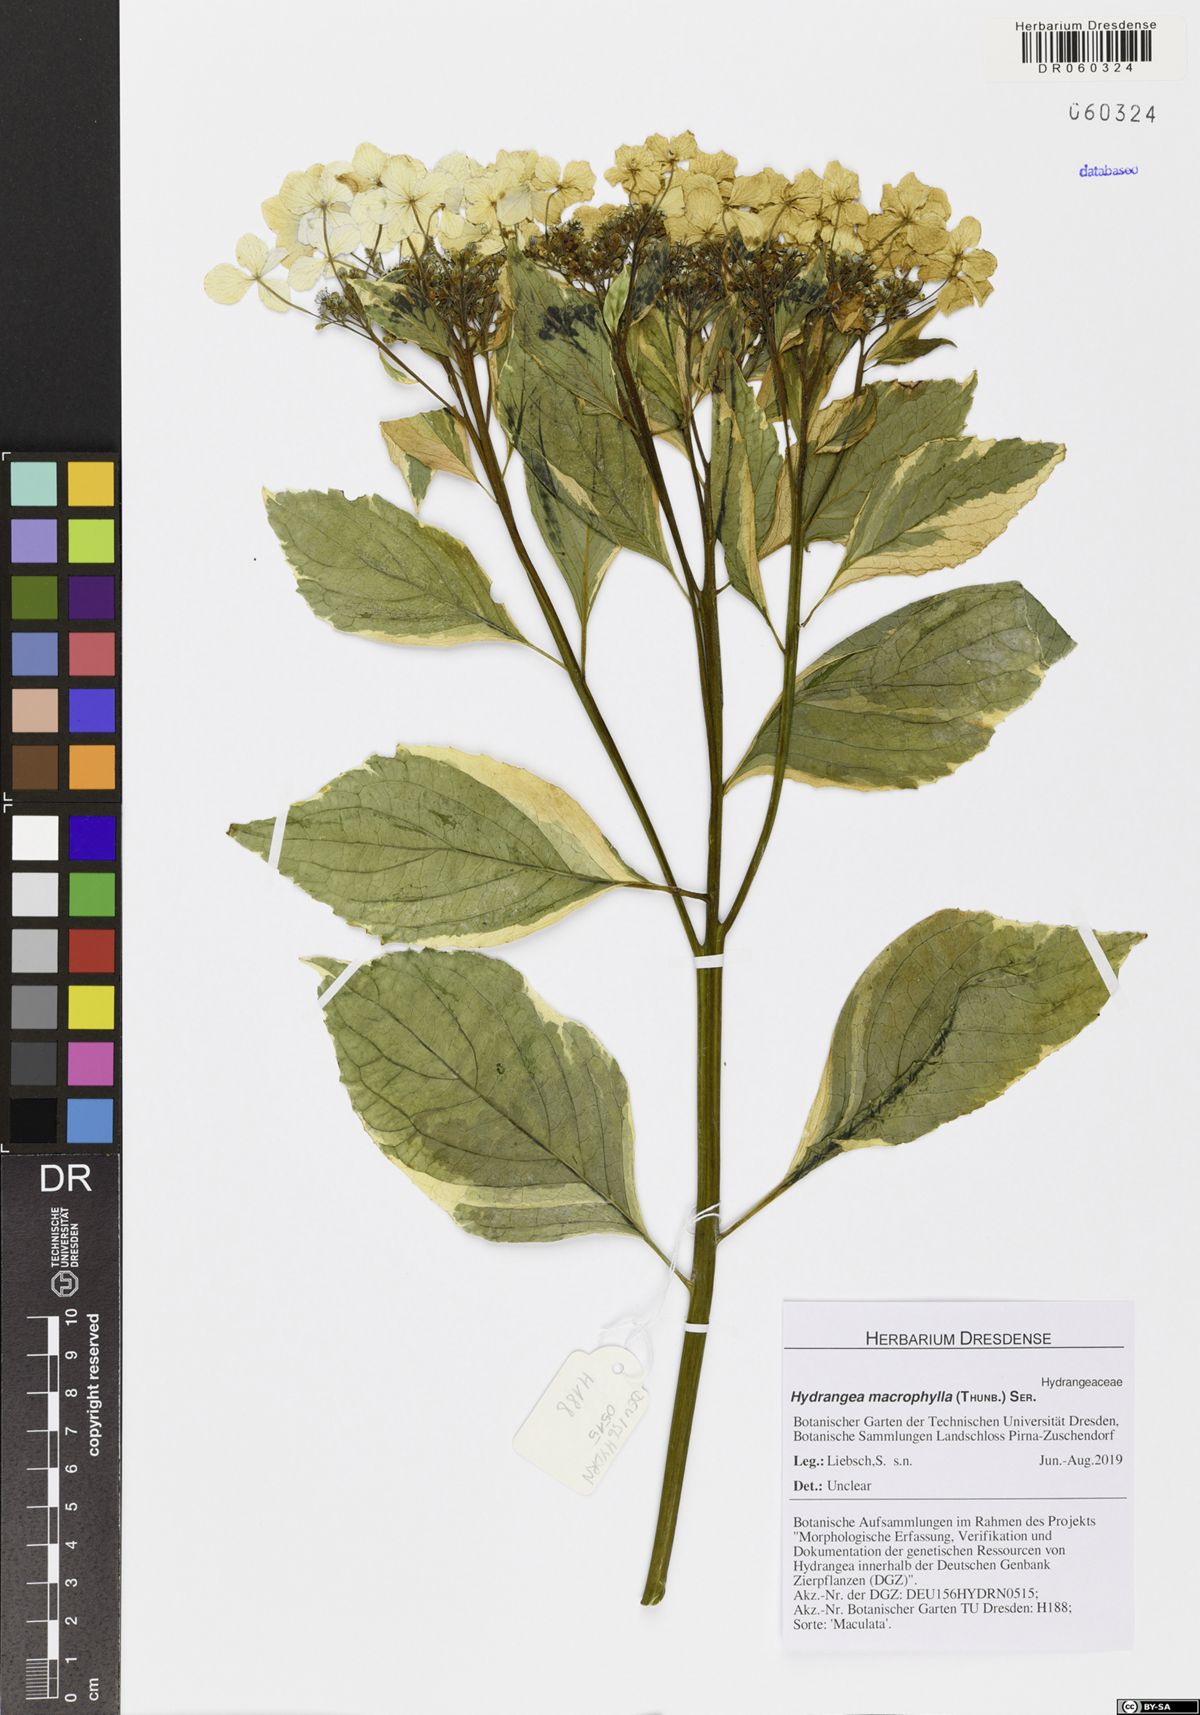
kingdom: Plantae
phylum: Tracheophyta
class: Magnoliopsida
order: Cornales
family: Hydrangeaceae
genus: Hydrangea
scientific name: Hydrangea macrophylla
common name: Hydrangea
